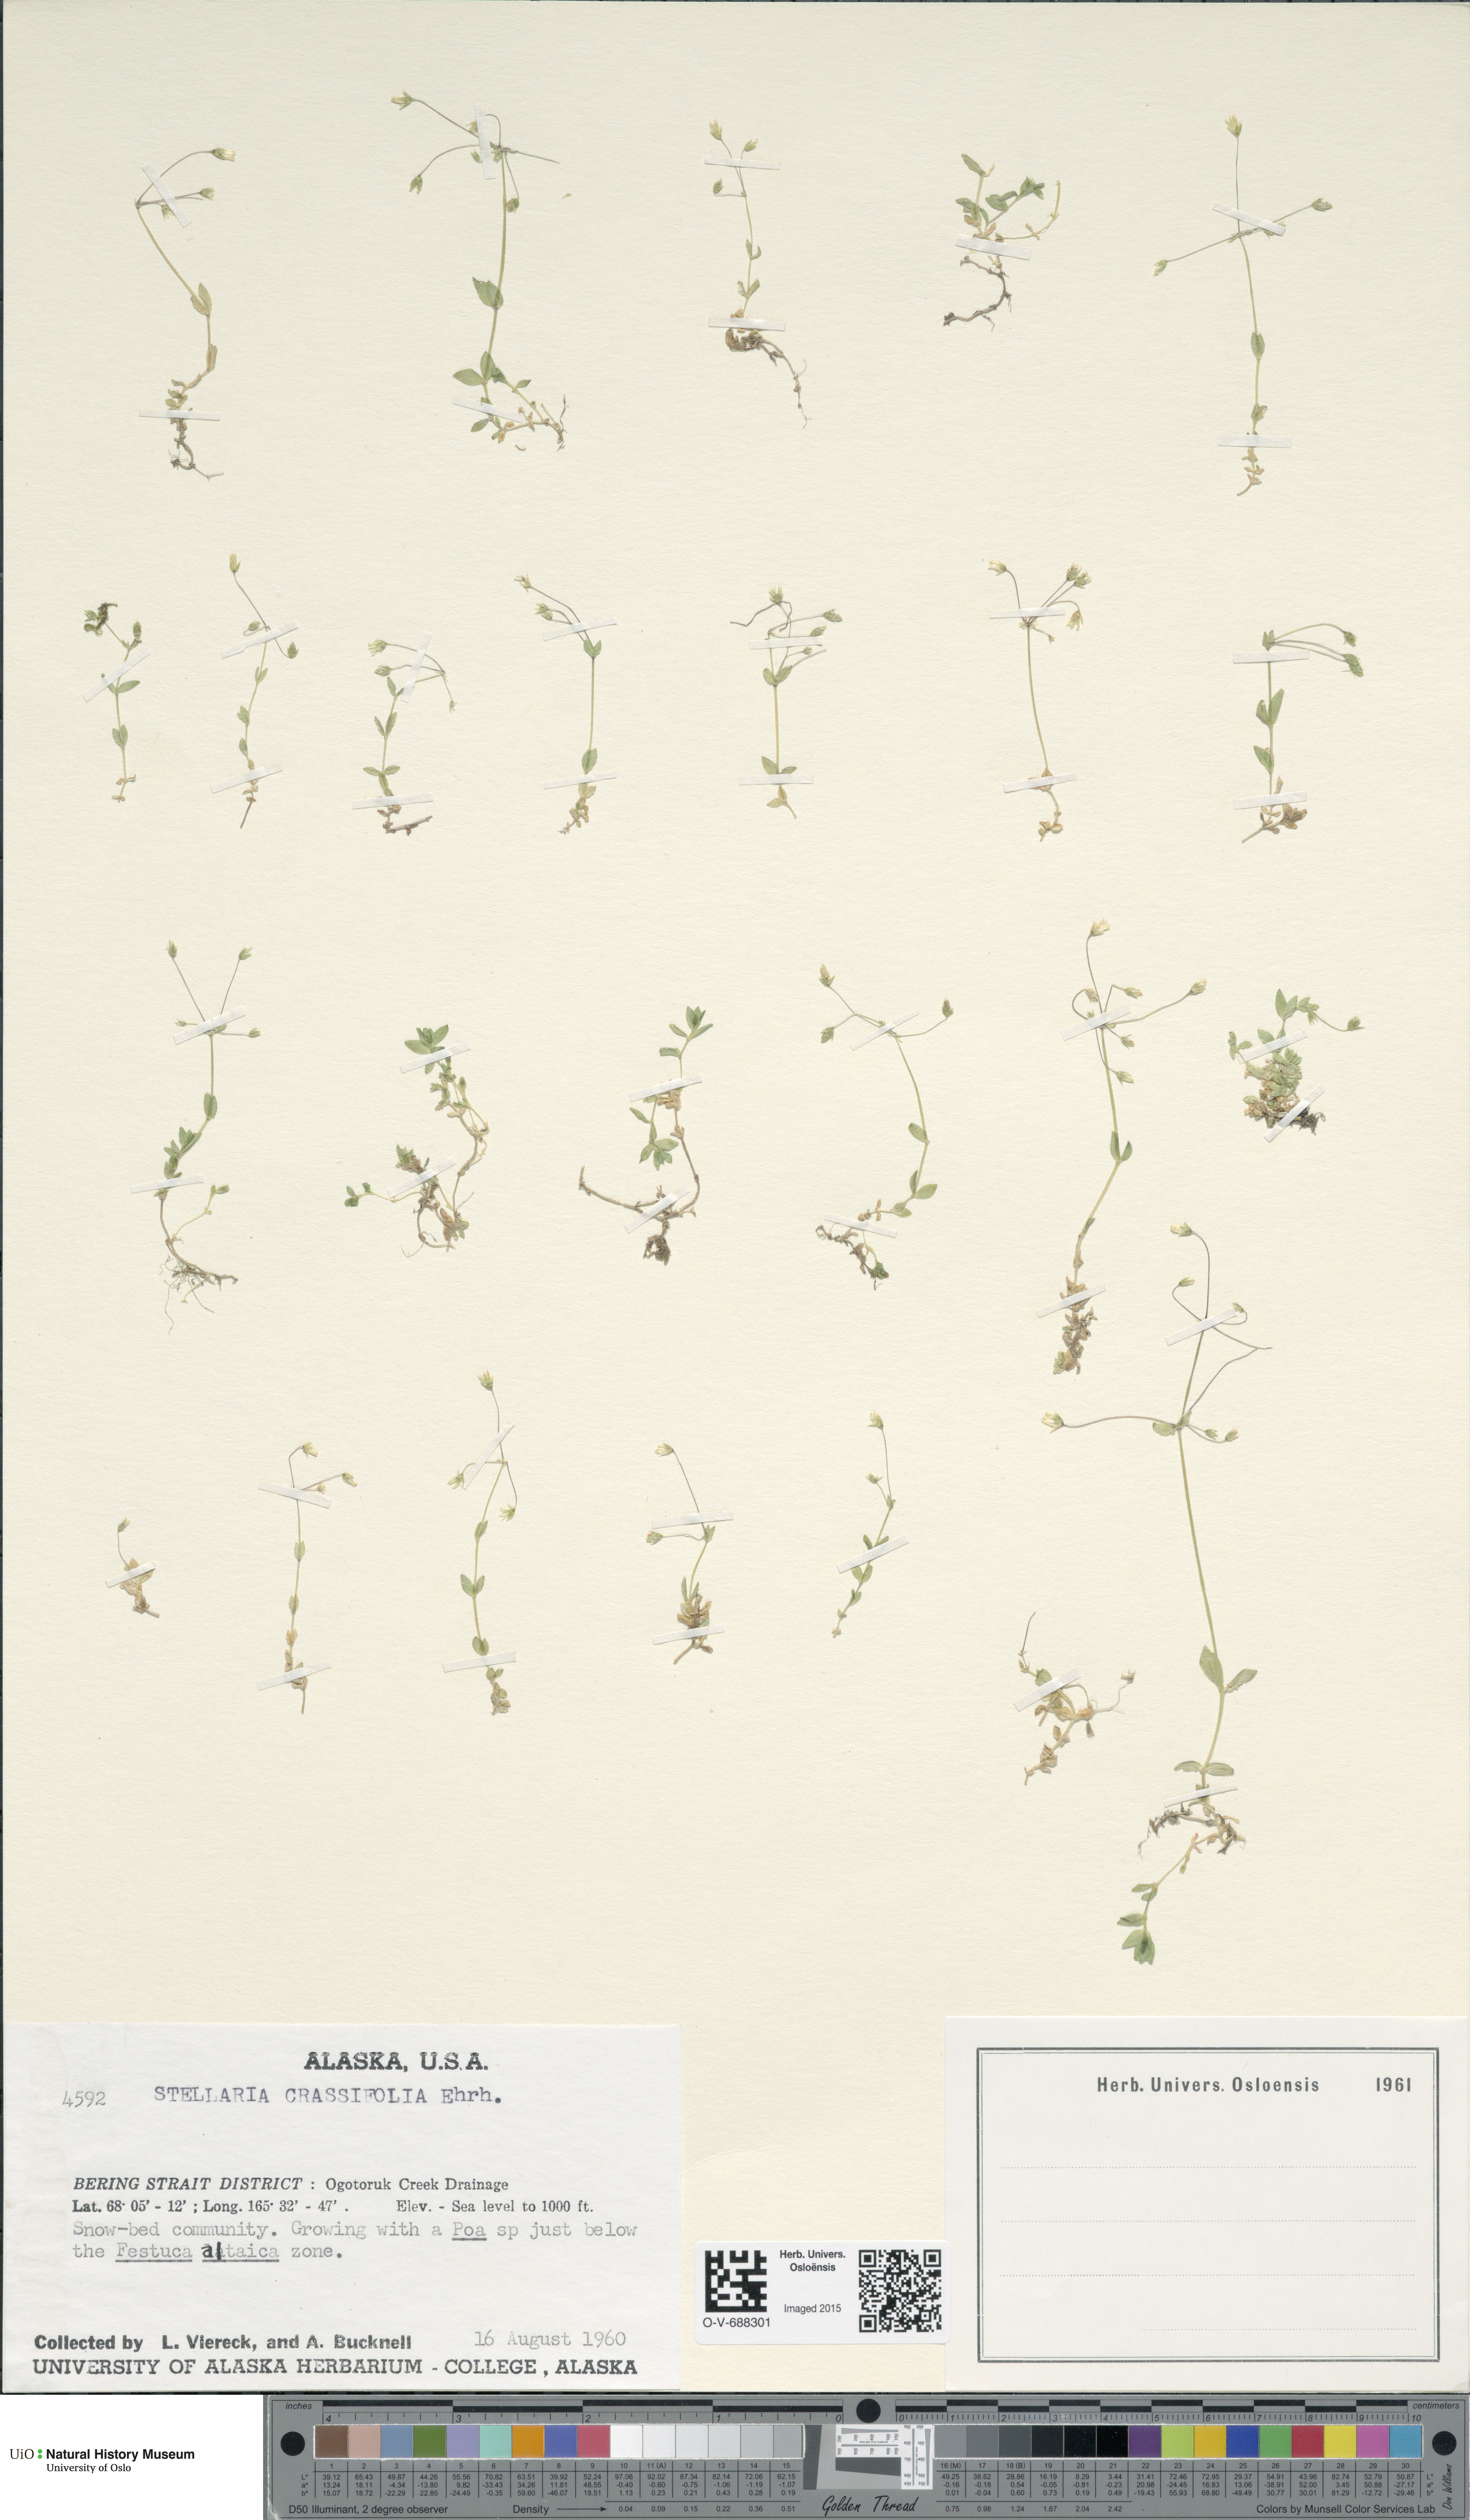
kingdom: Plantae
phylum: Tracheophyta
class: Magnoliopsida
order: Caryophyllales
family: Caryophyllaceae
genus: Stellaria
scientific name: Stellaria crassifolia
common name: Fleshy starwort
